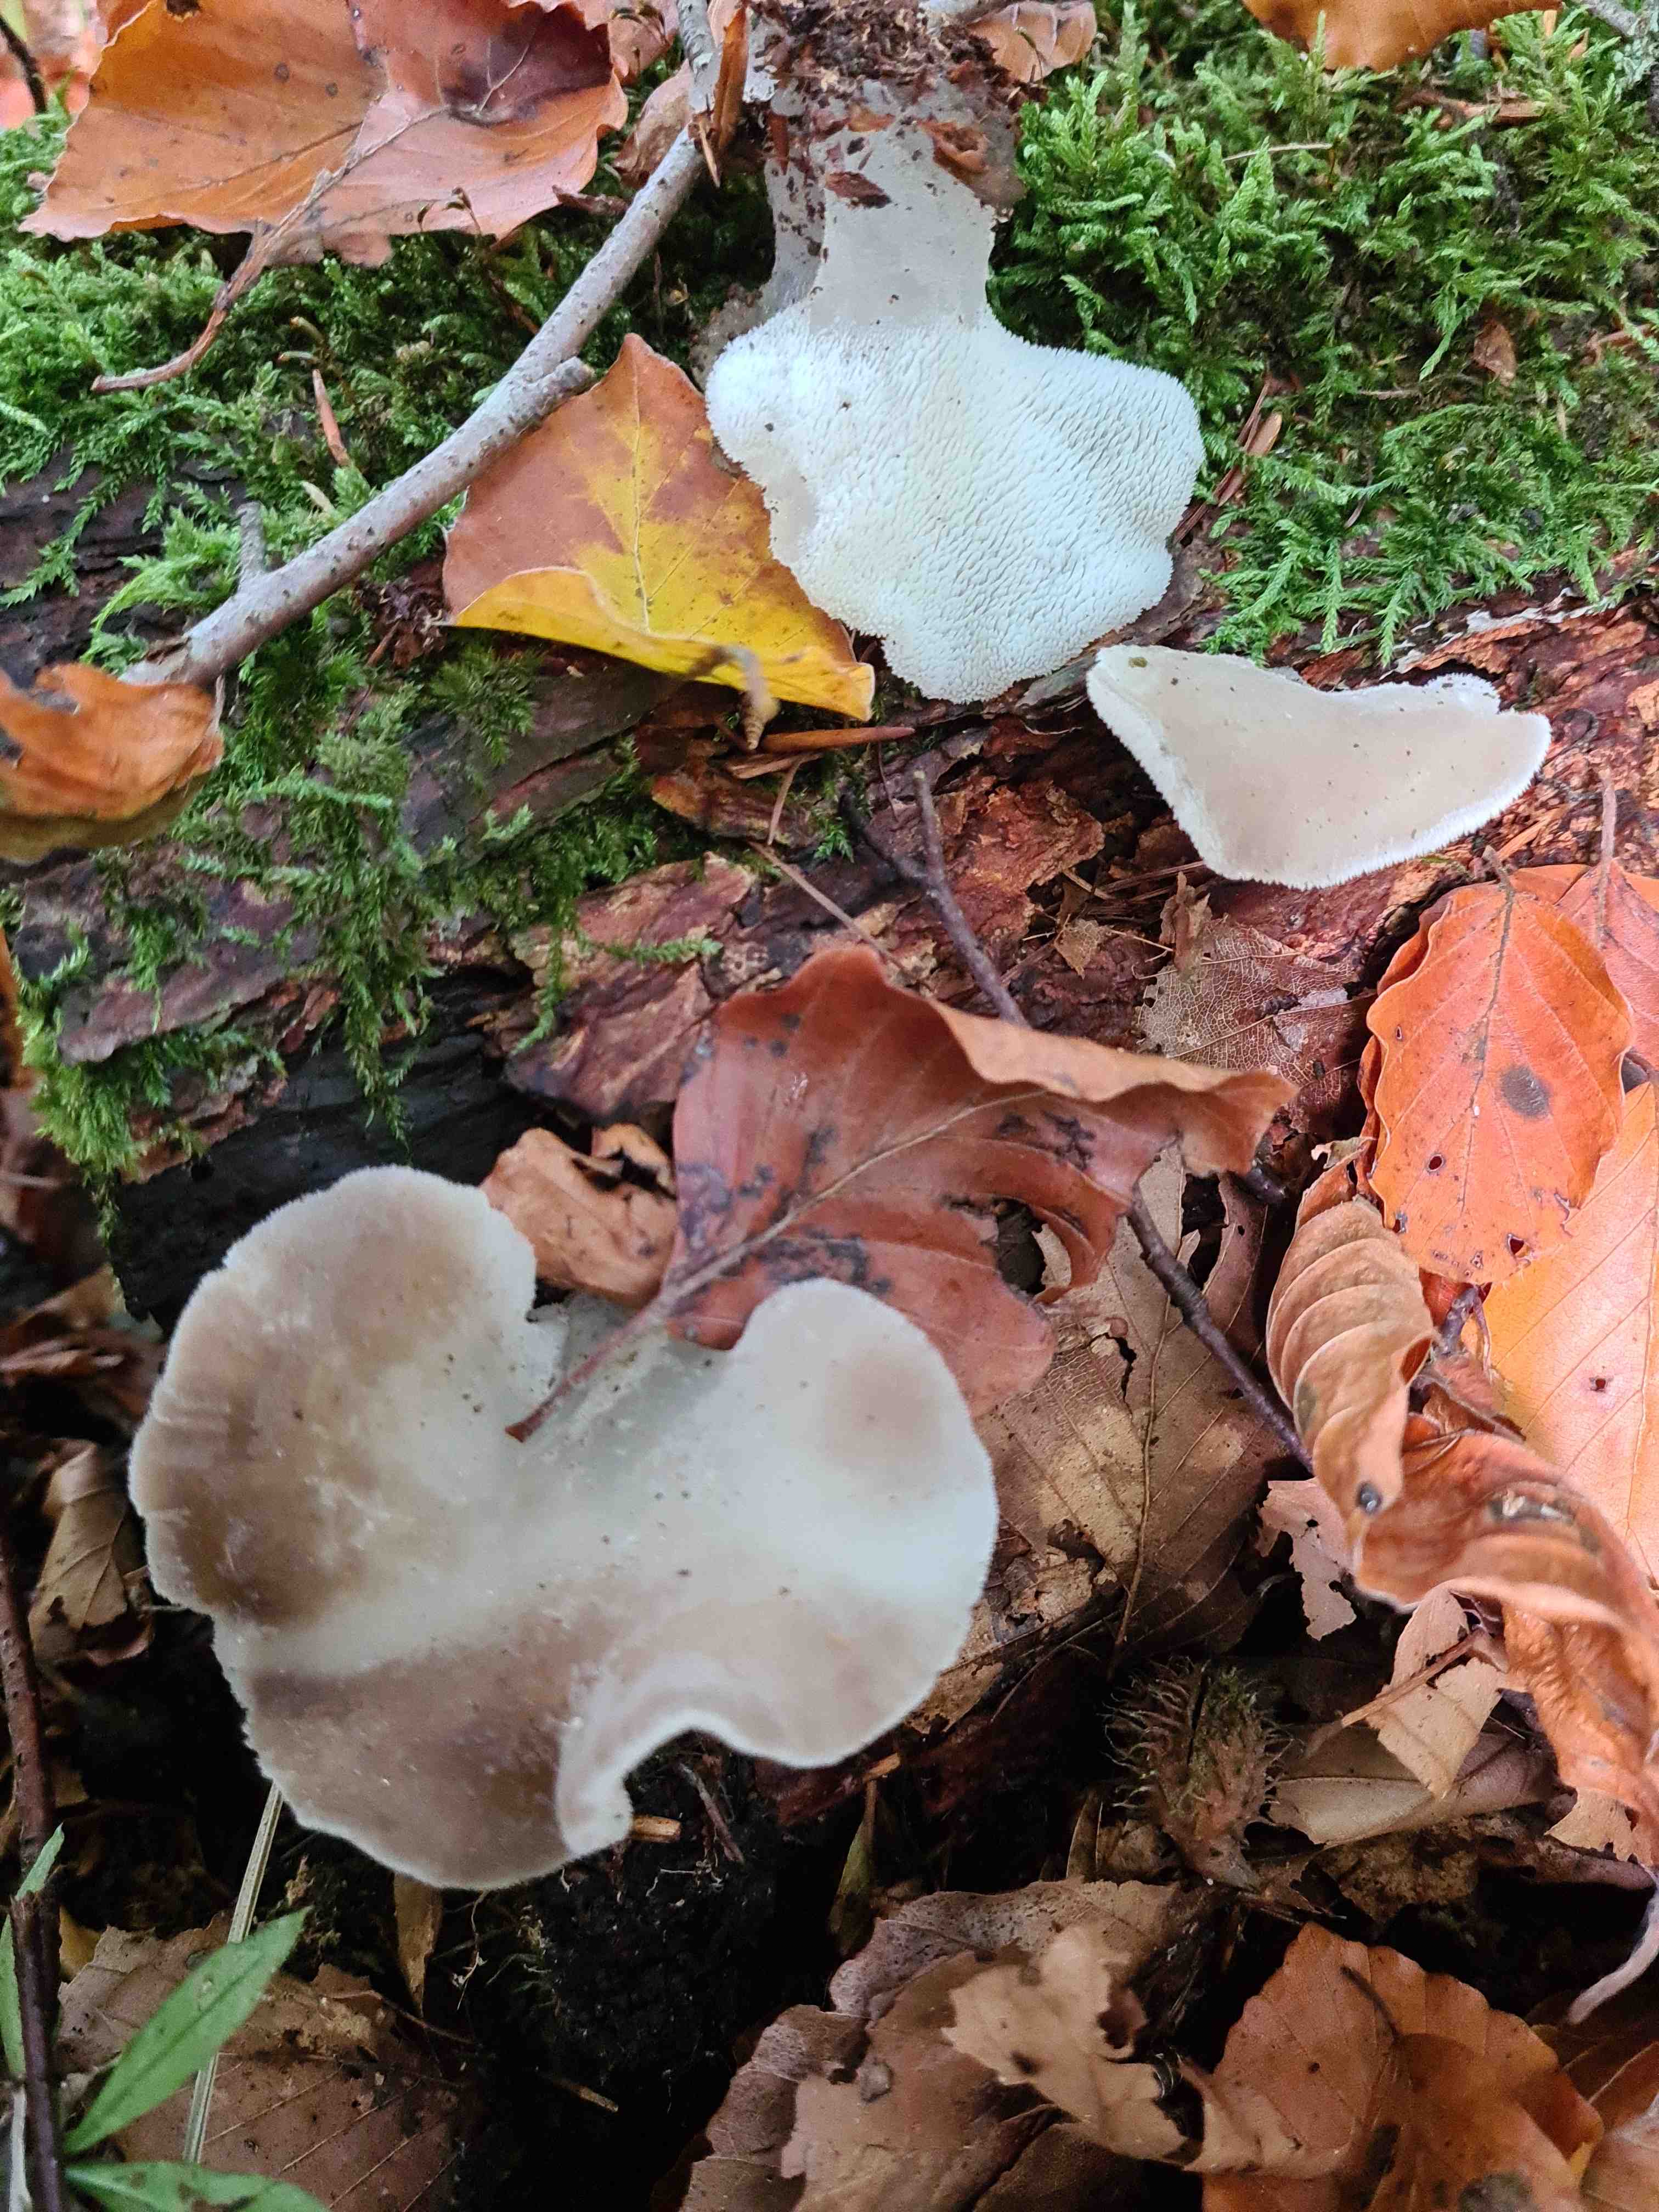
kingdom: Fungi
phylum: Basidiomycota
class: Agaricomycetes
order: Auriculariales
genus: Pseudohydnum
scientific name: Pseudohydnum gelatinosum
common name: bævretand
